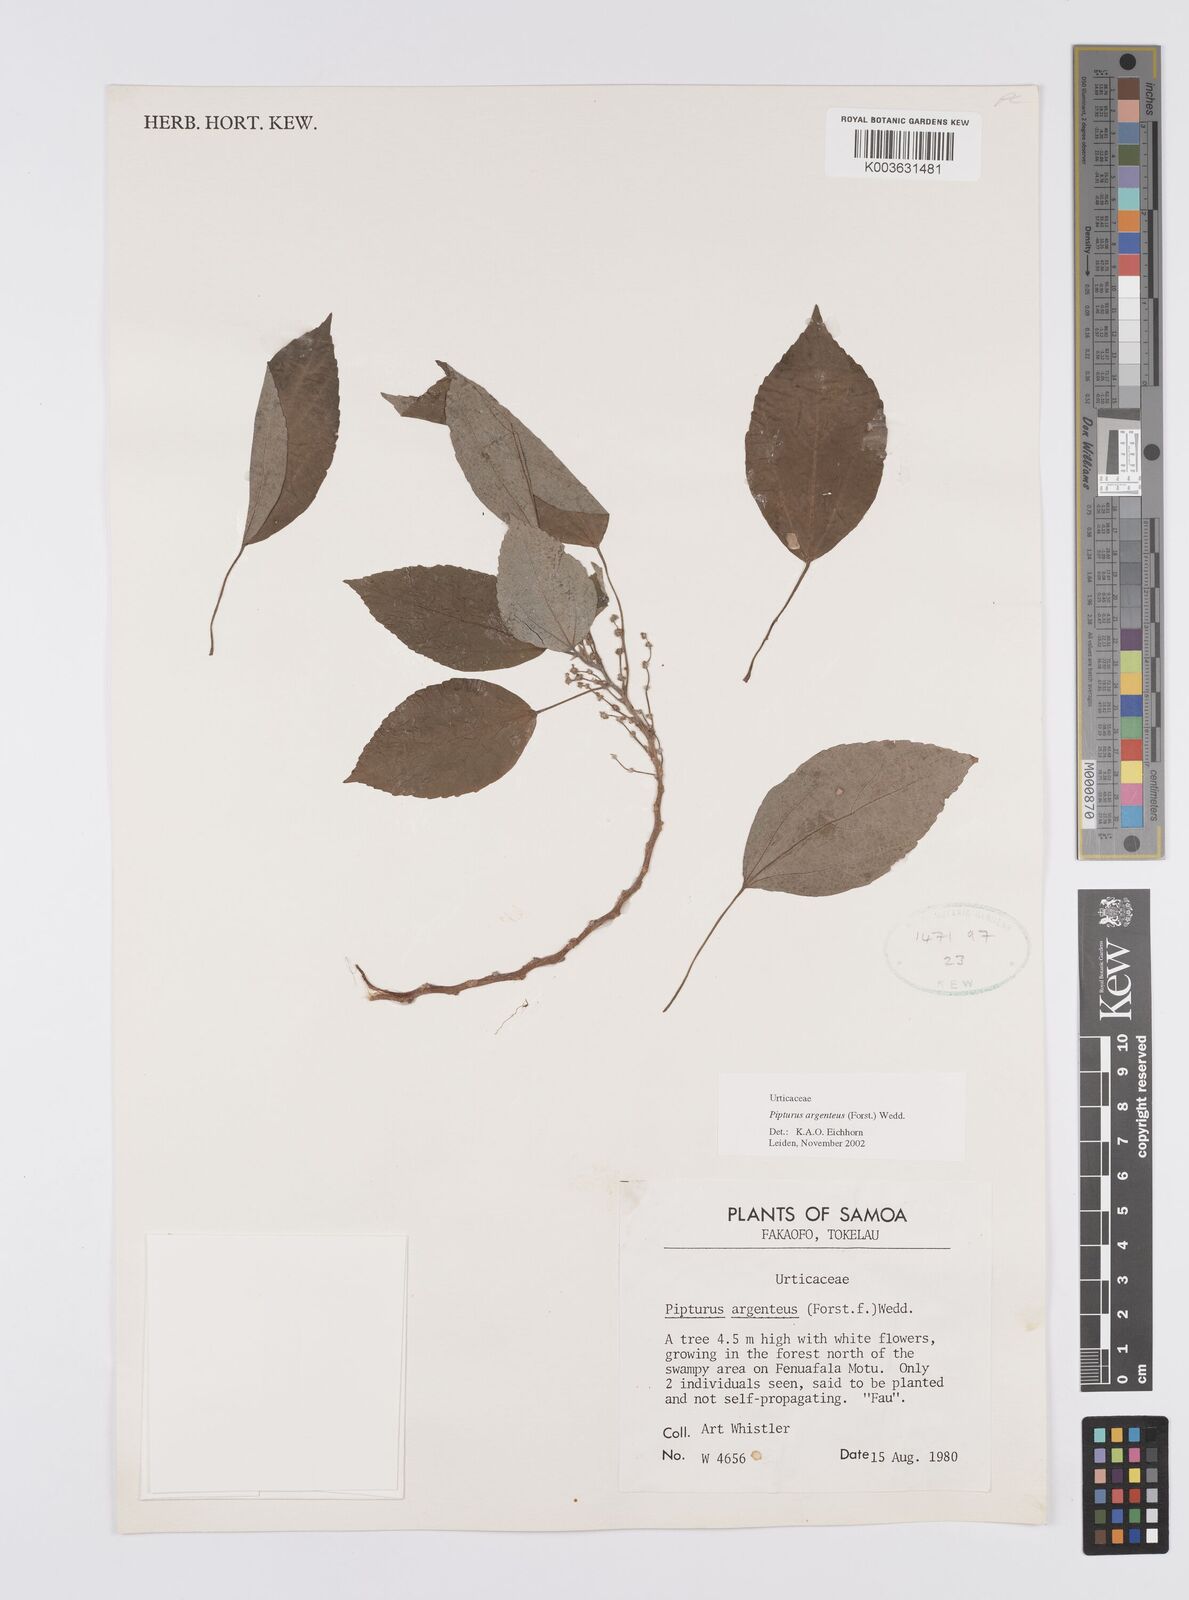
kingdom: Plantae
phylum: Tracheophyta
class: Magnoliopsida
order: Rosales
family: Urticaceae
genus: Pipturus
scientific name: Pipturus argenteus
